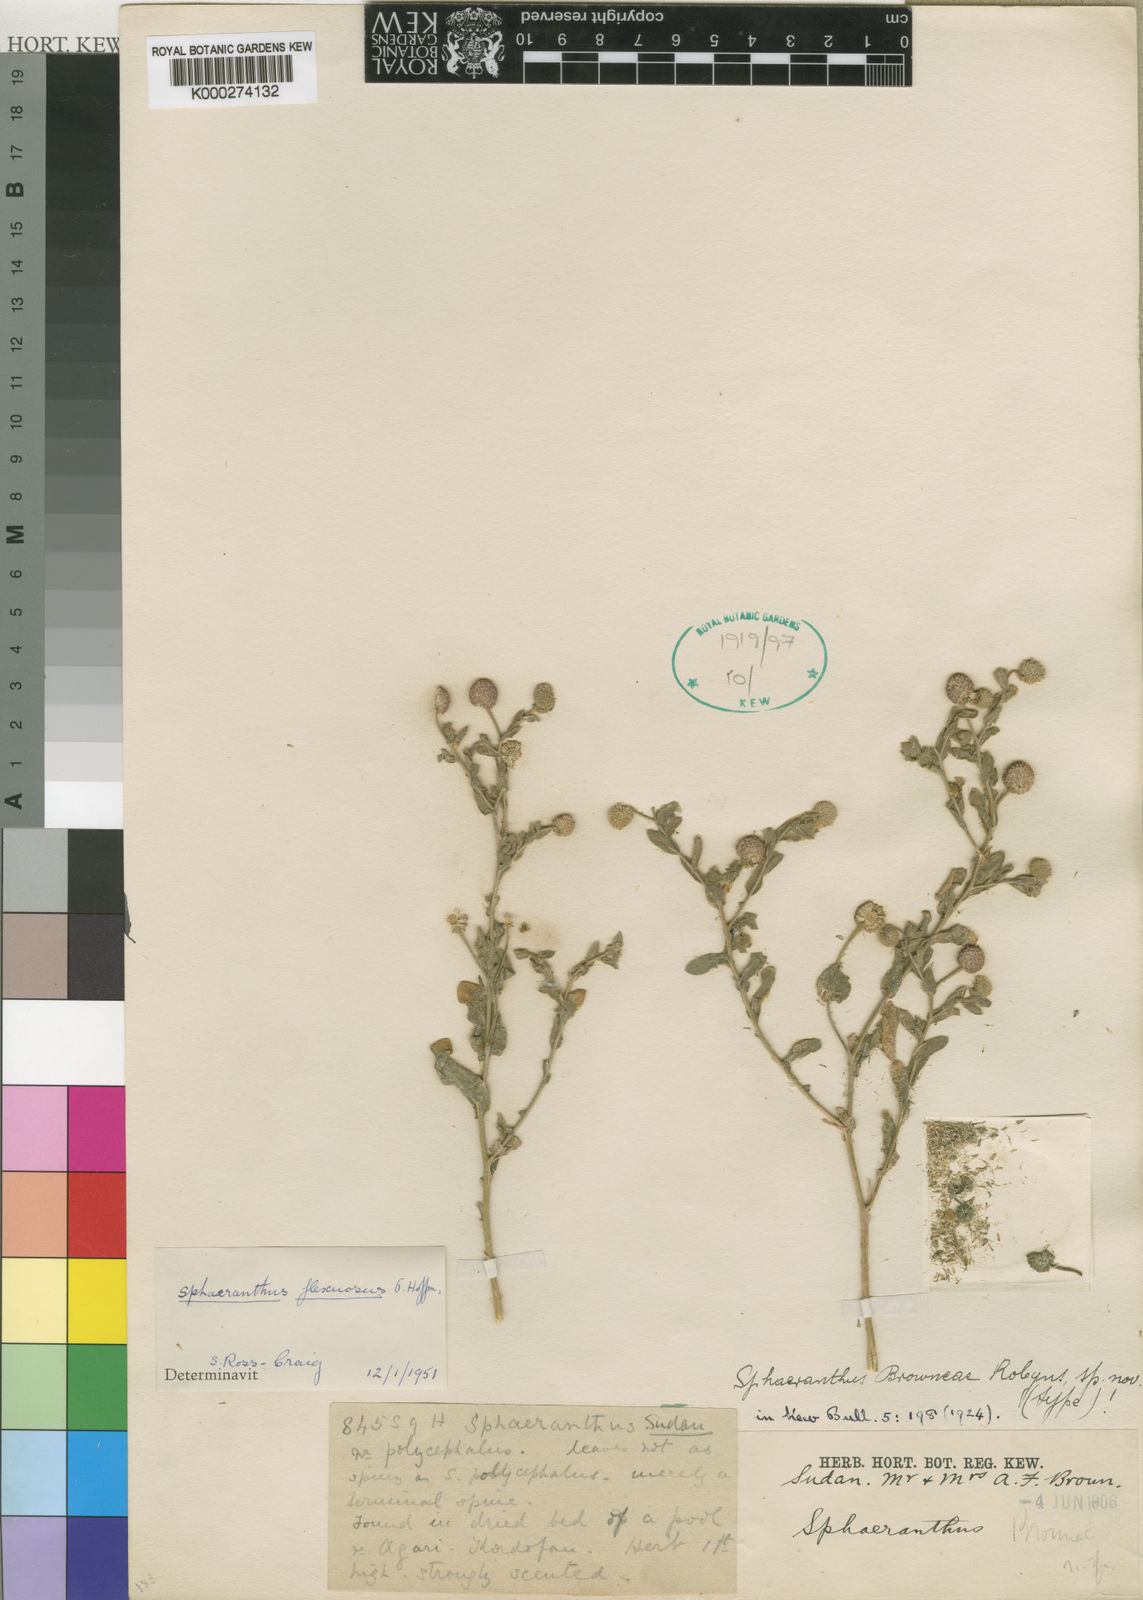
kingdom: Plantae
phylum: Tracheophyta
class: Magnoliopsida
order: Asterales
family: Asteraceae
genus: Sphaeranthus
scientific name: Sphaeranthus flexuosus
